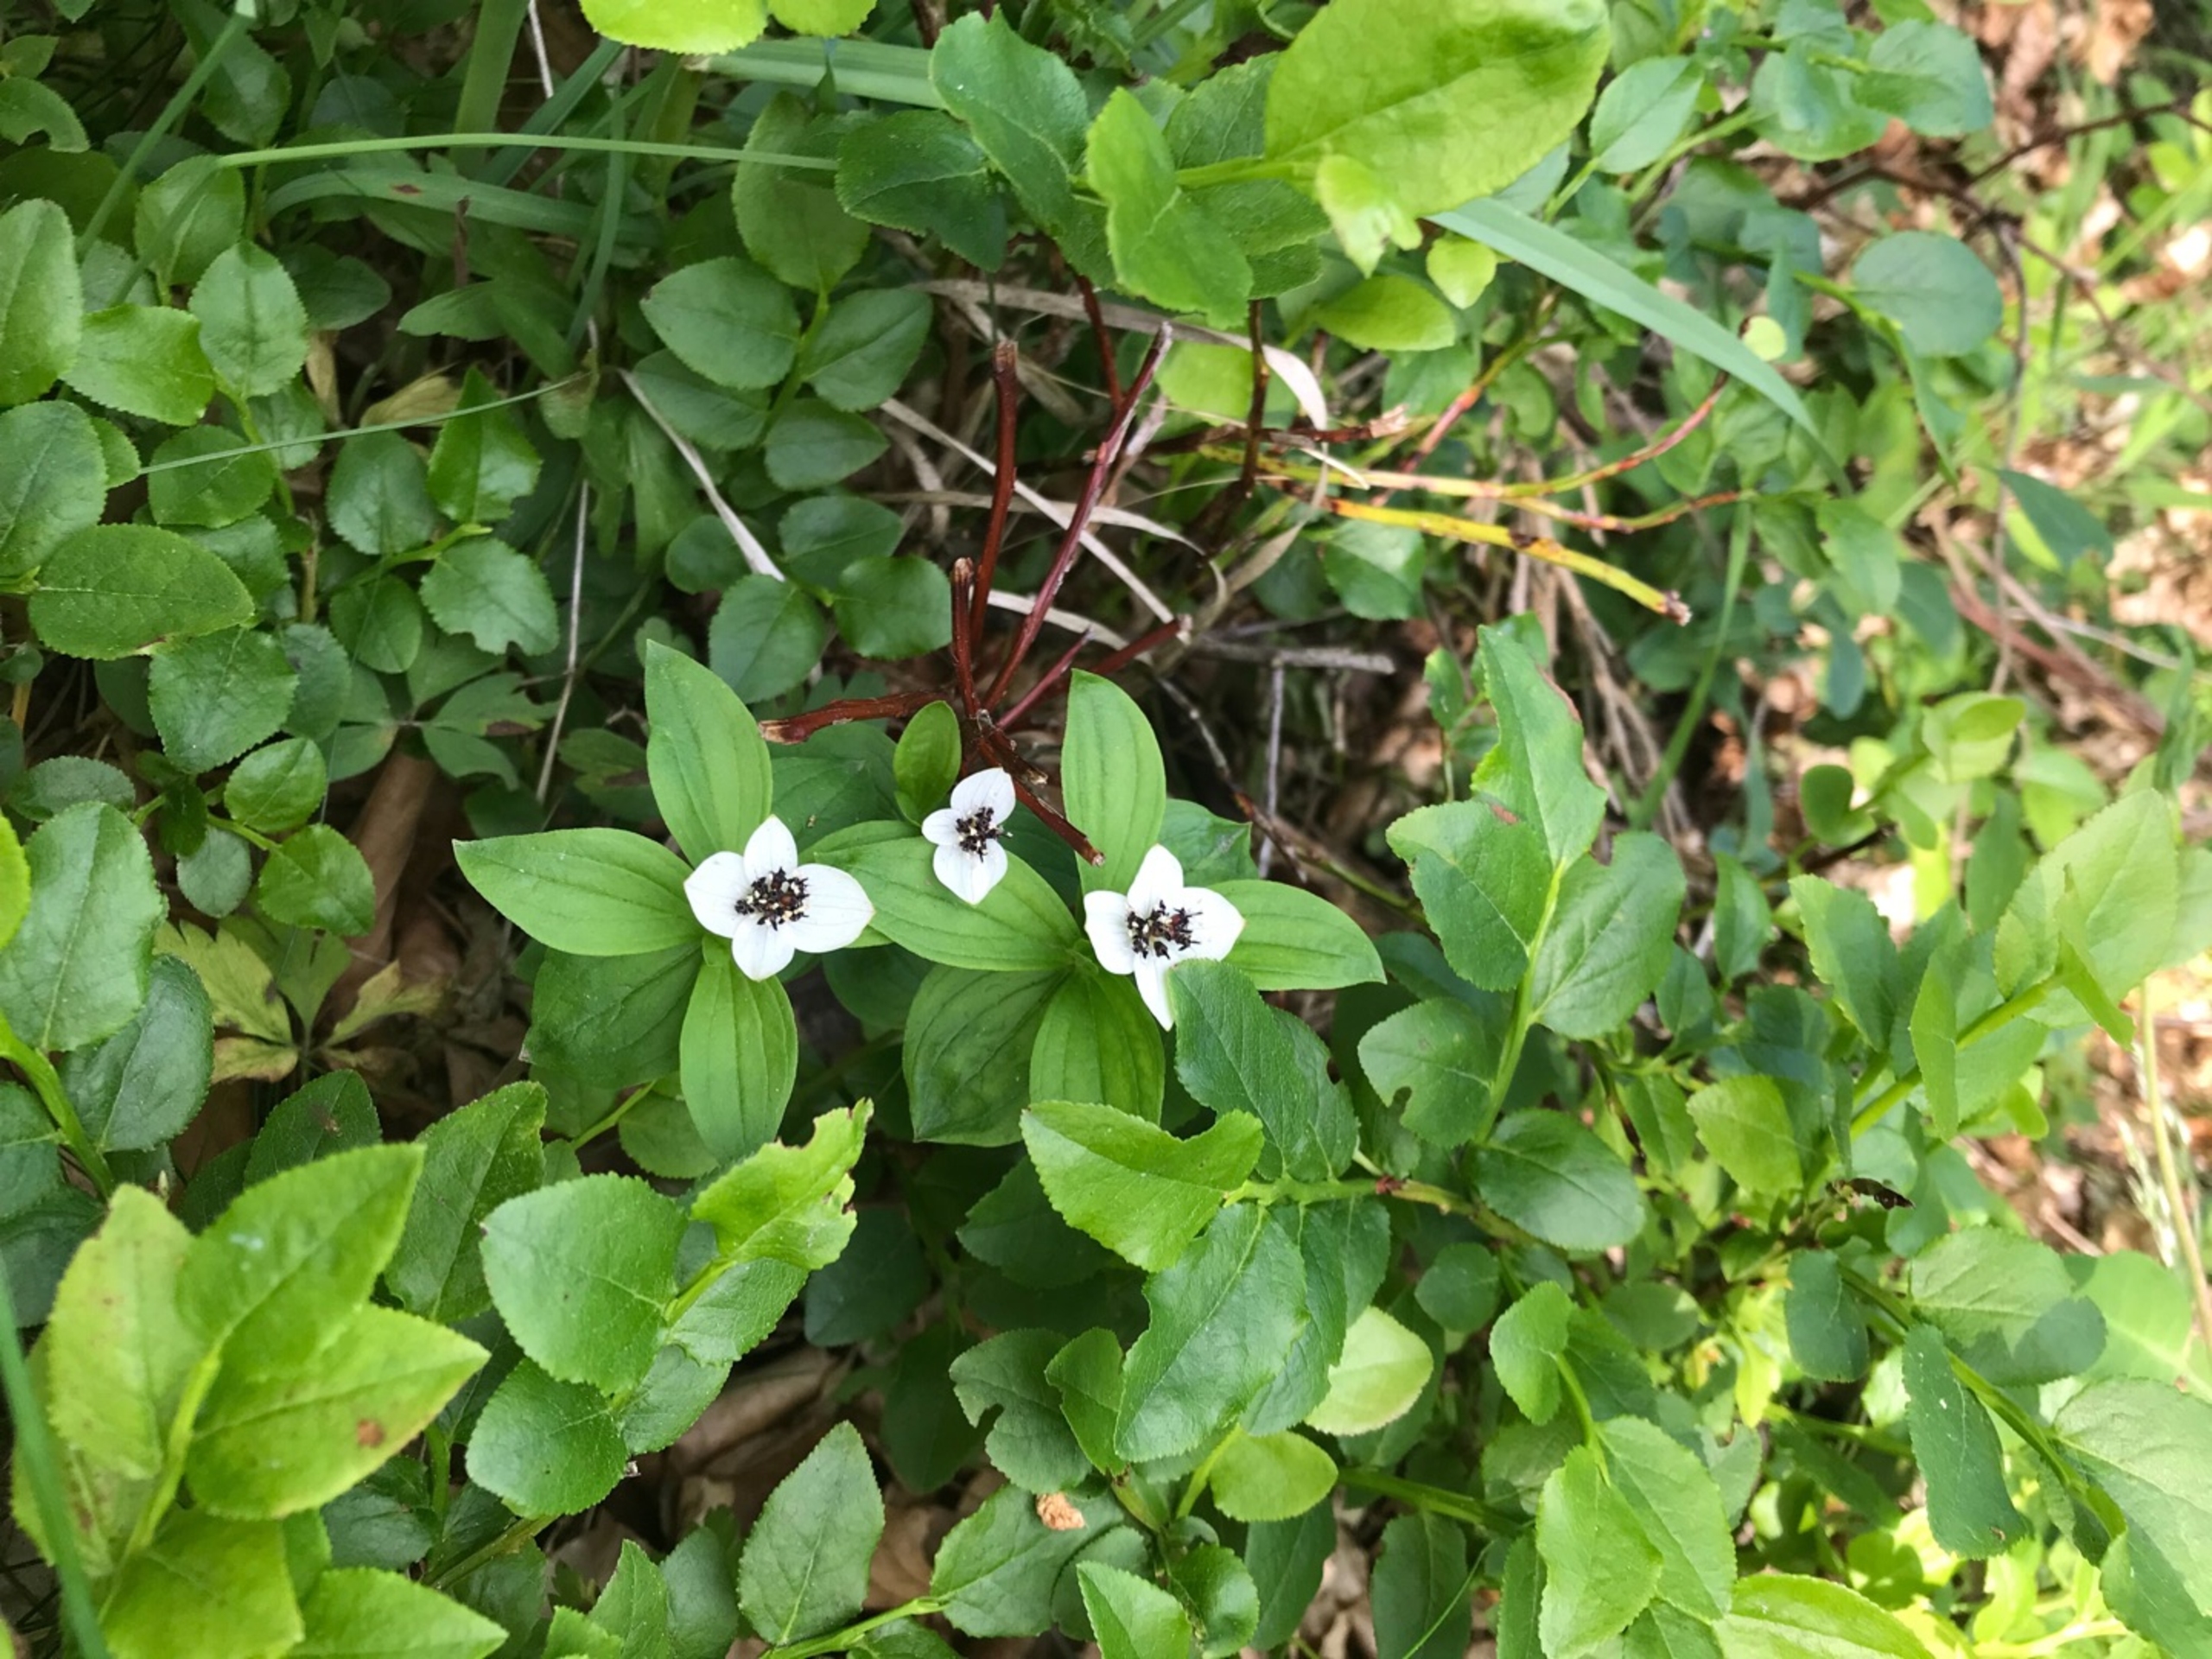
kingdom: Plantae
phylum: Tracheophyta
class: Magnoliopsida
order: Cornales
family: Cornaceae
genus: Cornus
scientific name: Cornus suecica
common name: Hønsebær
